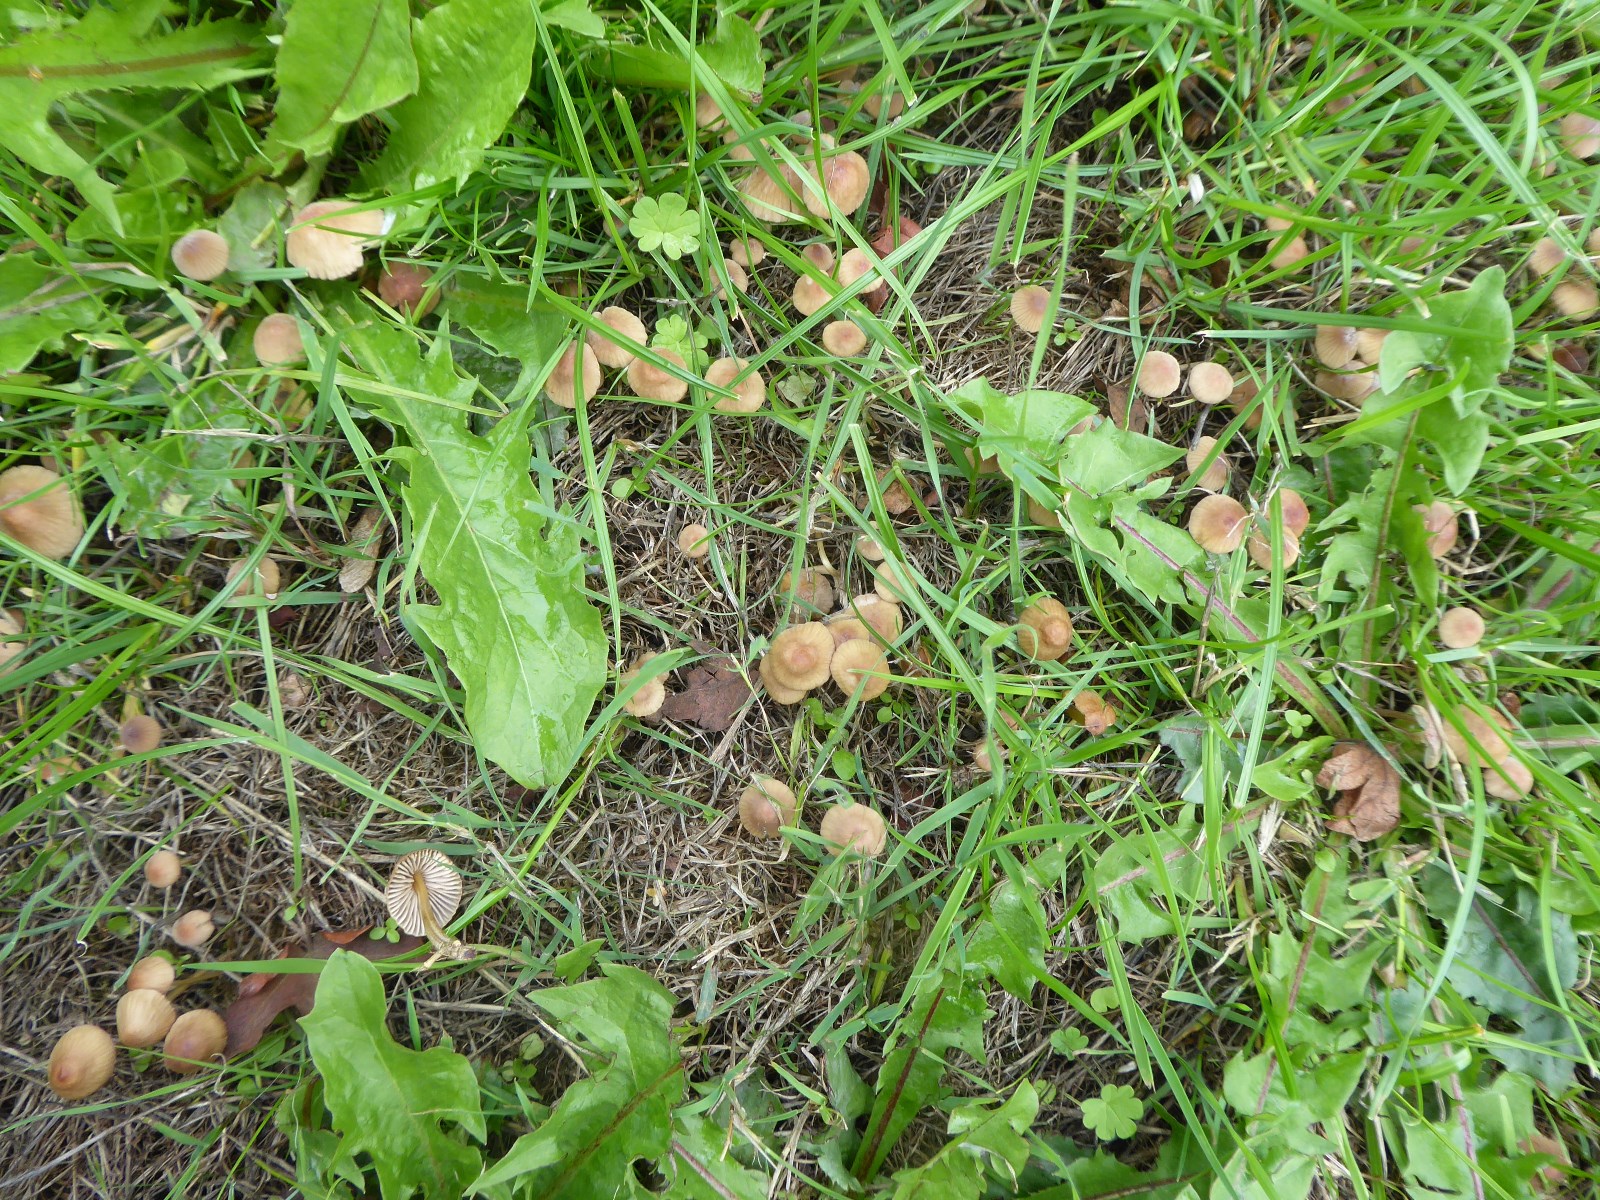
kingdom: Fungi
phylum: Basidiomycota
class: Agaricomycetes
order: Agaricales
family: Mycenaceae
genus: Mycena
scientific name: Mycena olivaceomarginata
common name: brunægget huesvamp
